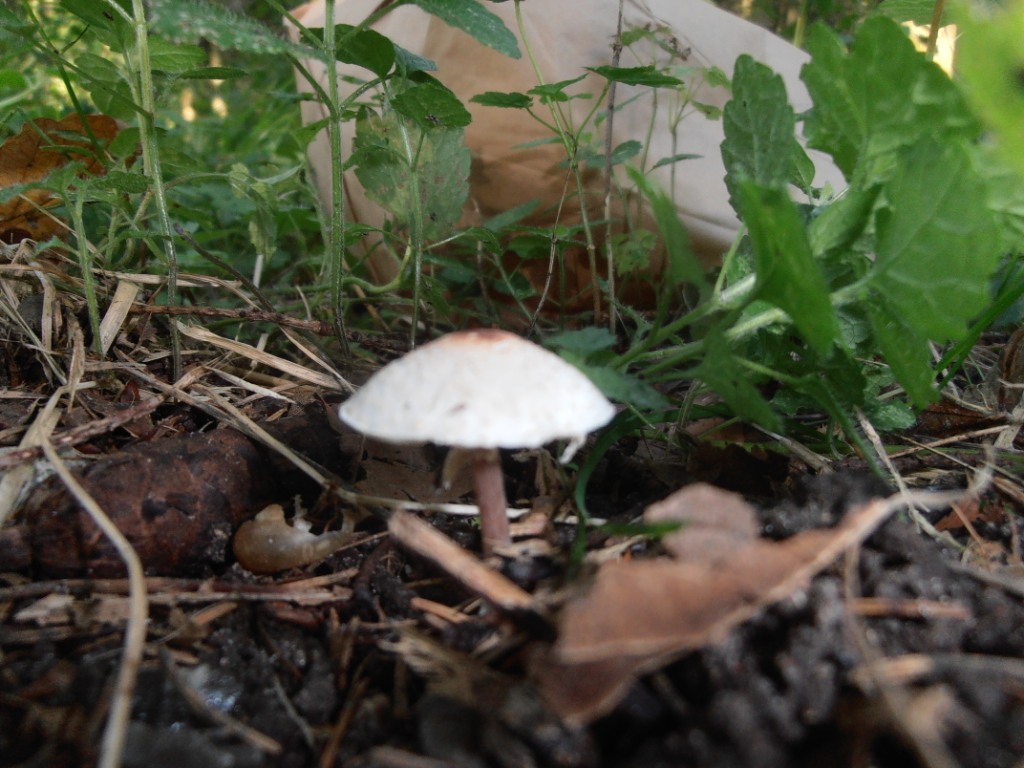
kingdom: Fungi
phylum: Basidiomycota
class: Agaricomycetes
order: Agaricales
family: Agaricaceae
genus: Lepiota
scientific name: Lepiota cristata
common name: stinkende parasolhat
